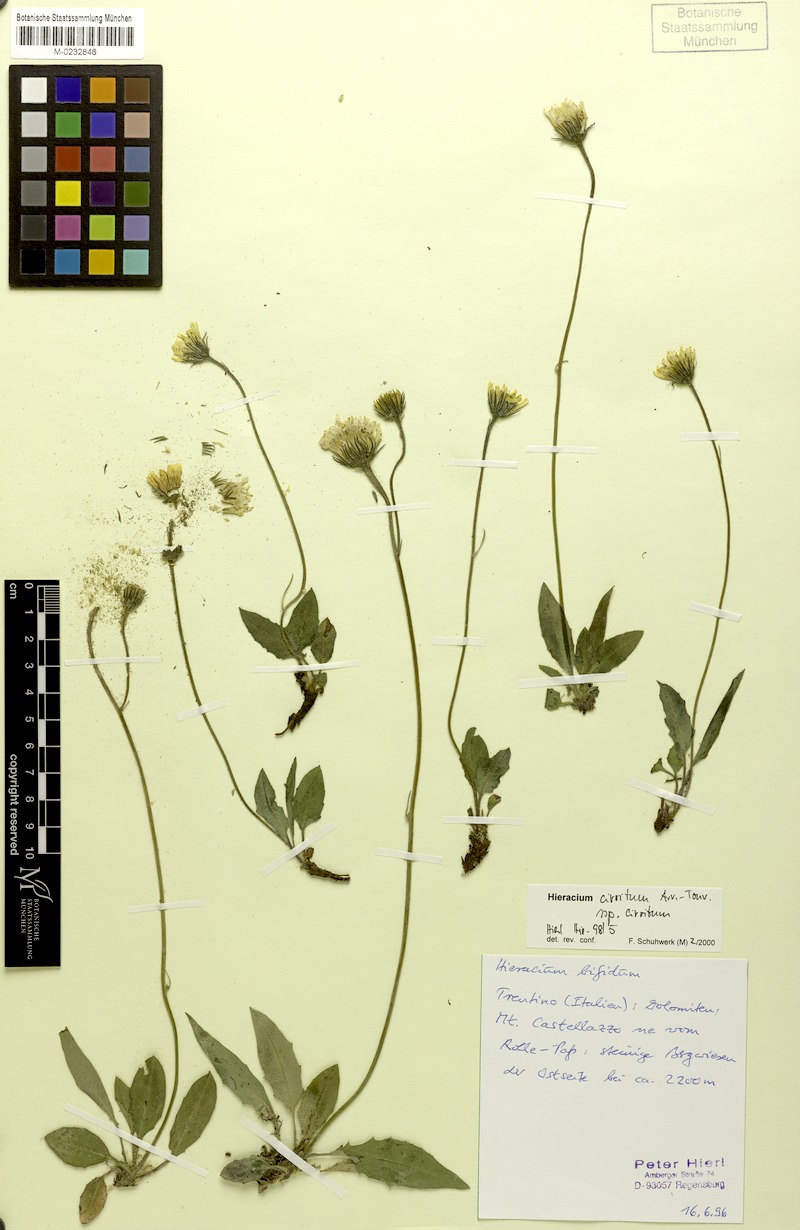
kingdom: Plantae
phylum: Tracheophyta
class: Magnoliopsida
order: Asterales
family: Asteraceae
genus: Hieracium
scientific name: Hieracium cirritum
